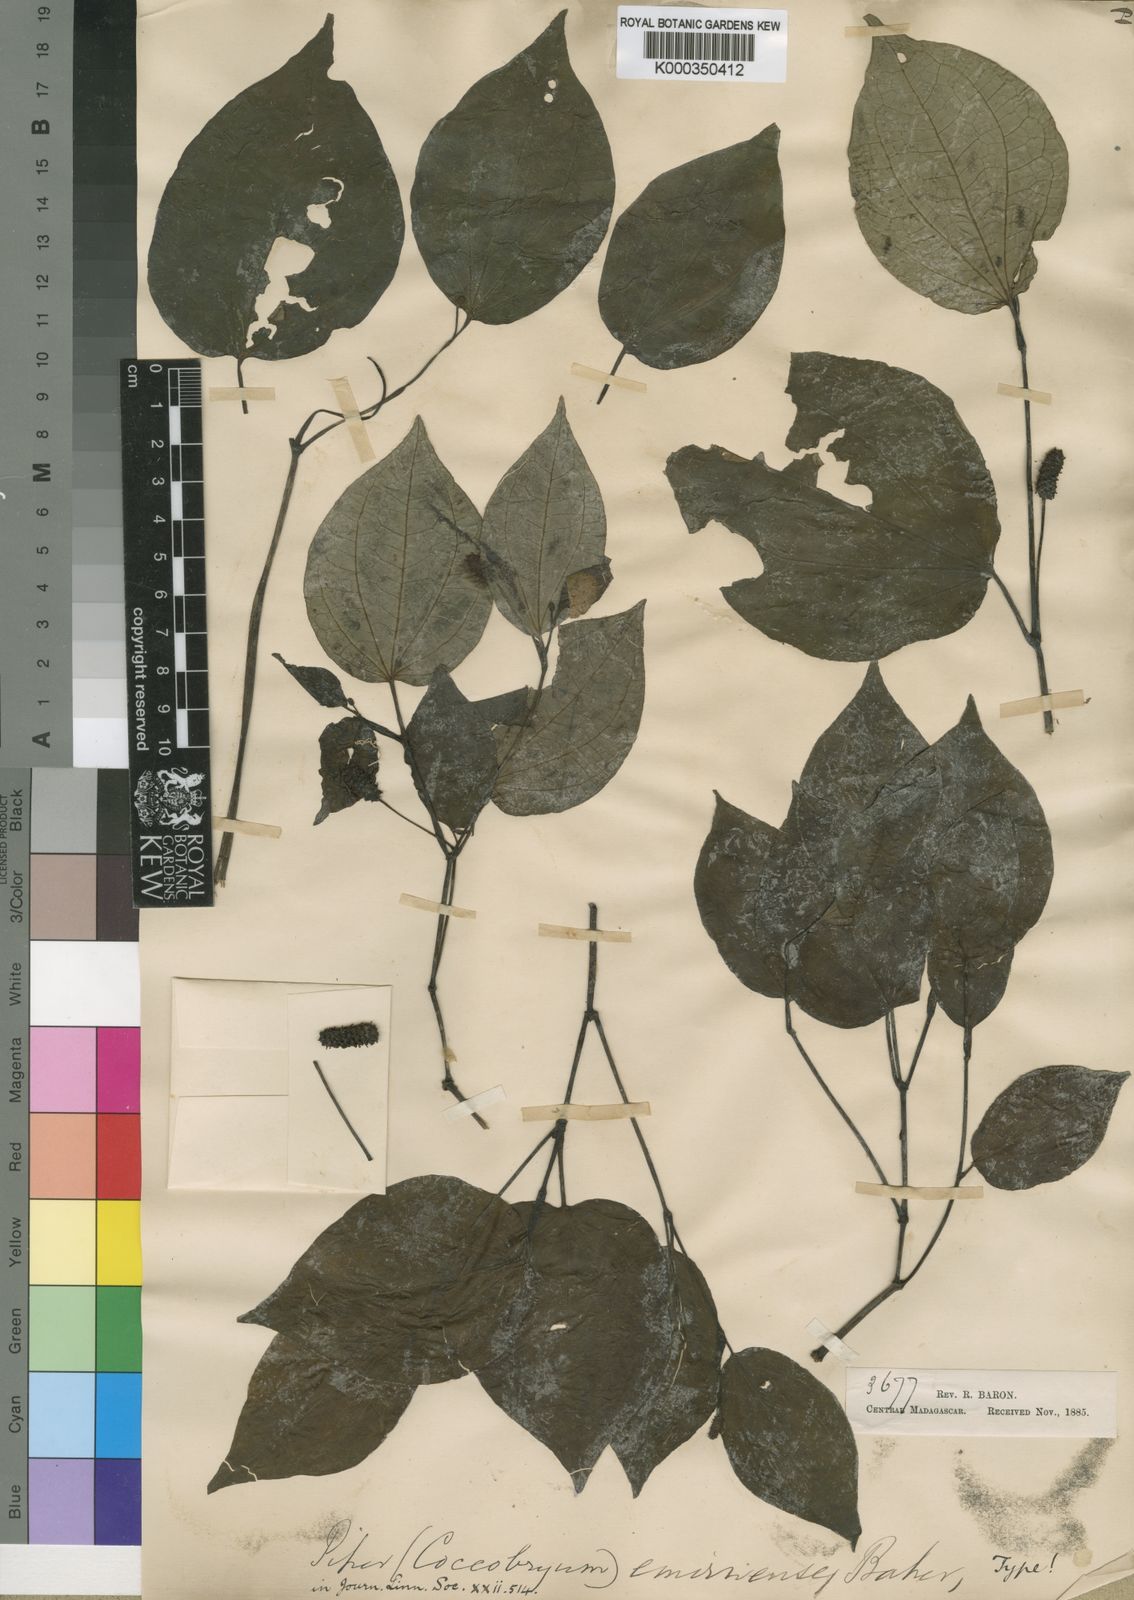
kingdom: Plantae
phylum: Tracheophyta
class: Magnoliopsida
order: Piperales
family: Piperaceae
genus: Piper
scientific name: Piper capense
